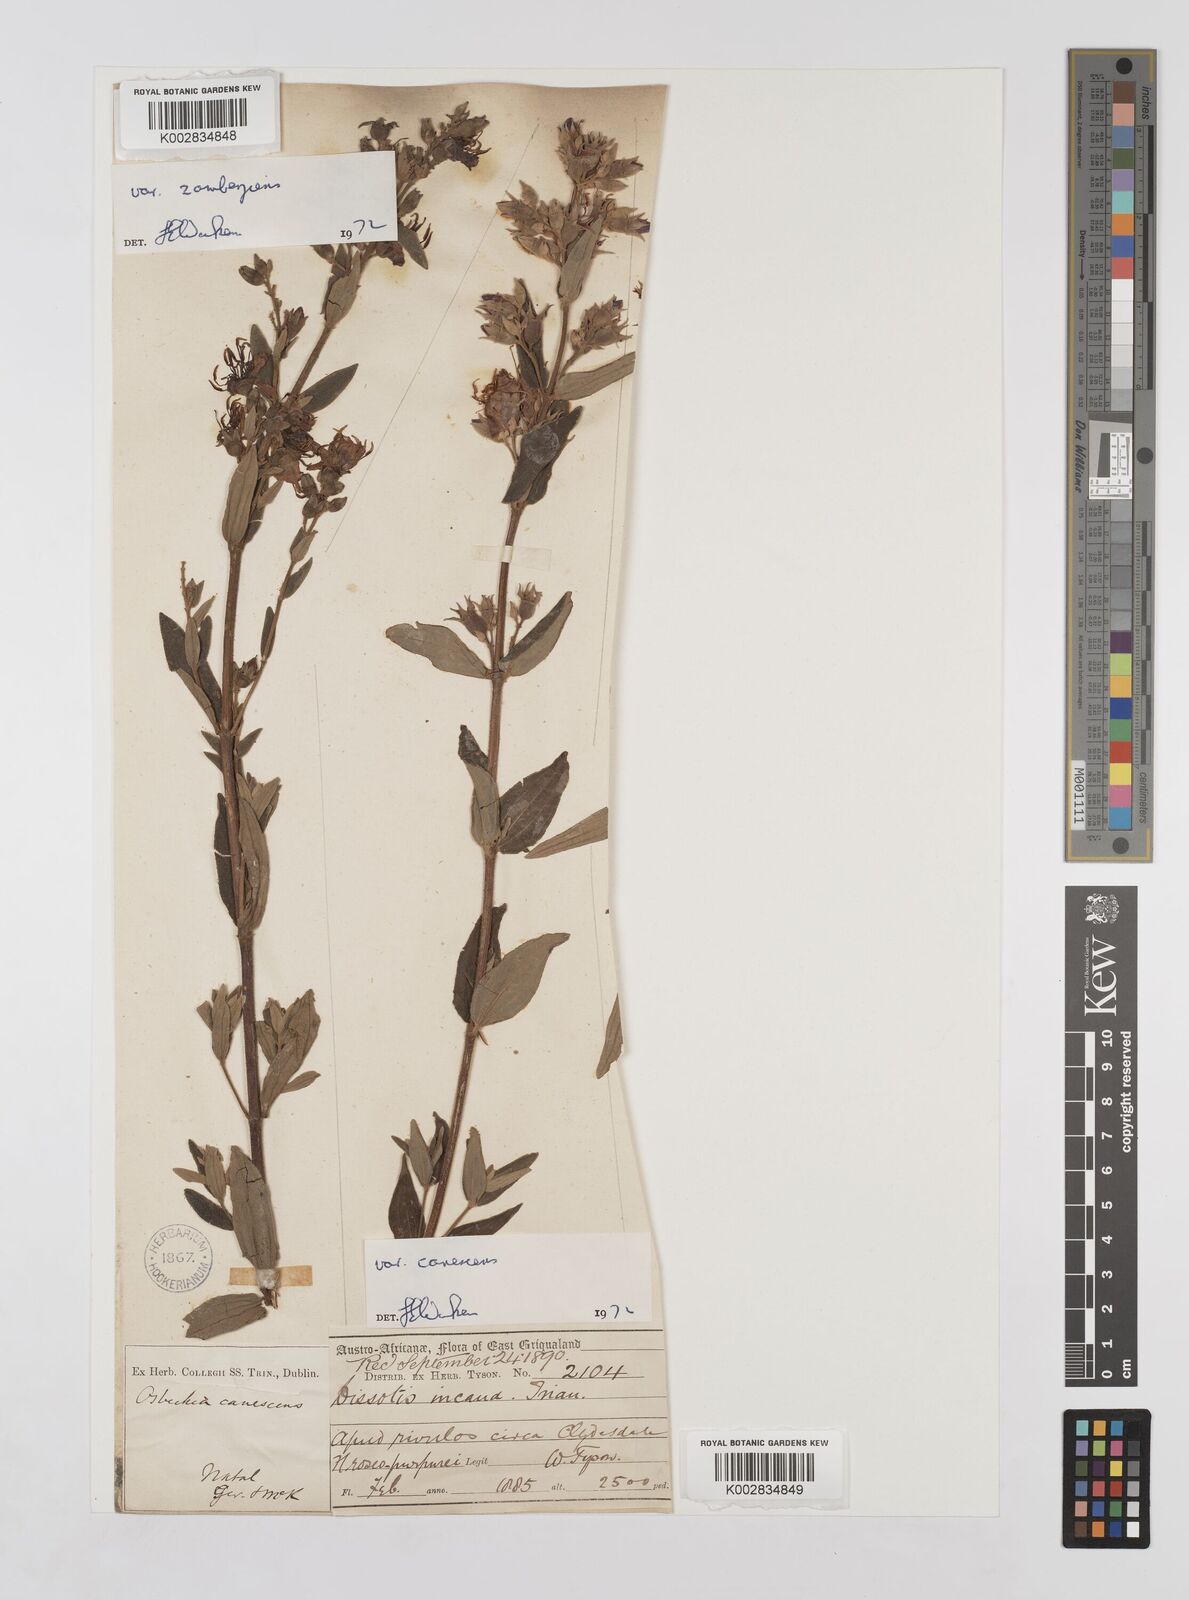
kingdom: Plantae
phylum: Tracheophyta
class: Magnoliopsida
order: Myrtales
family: Melastomataceae
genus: Argyrella
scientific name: Argyrella canescens
